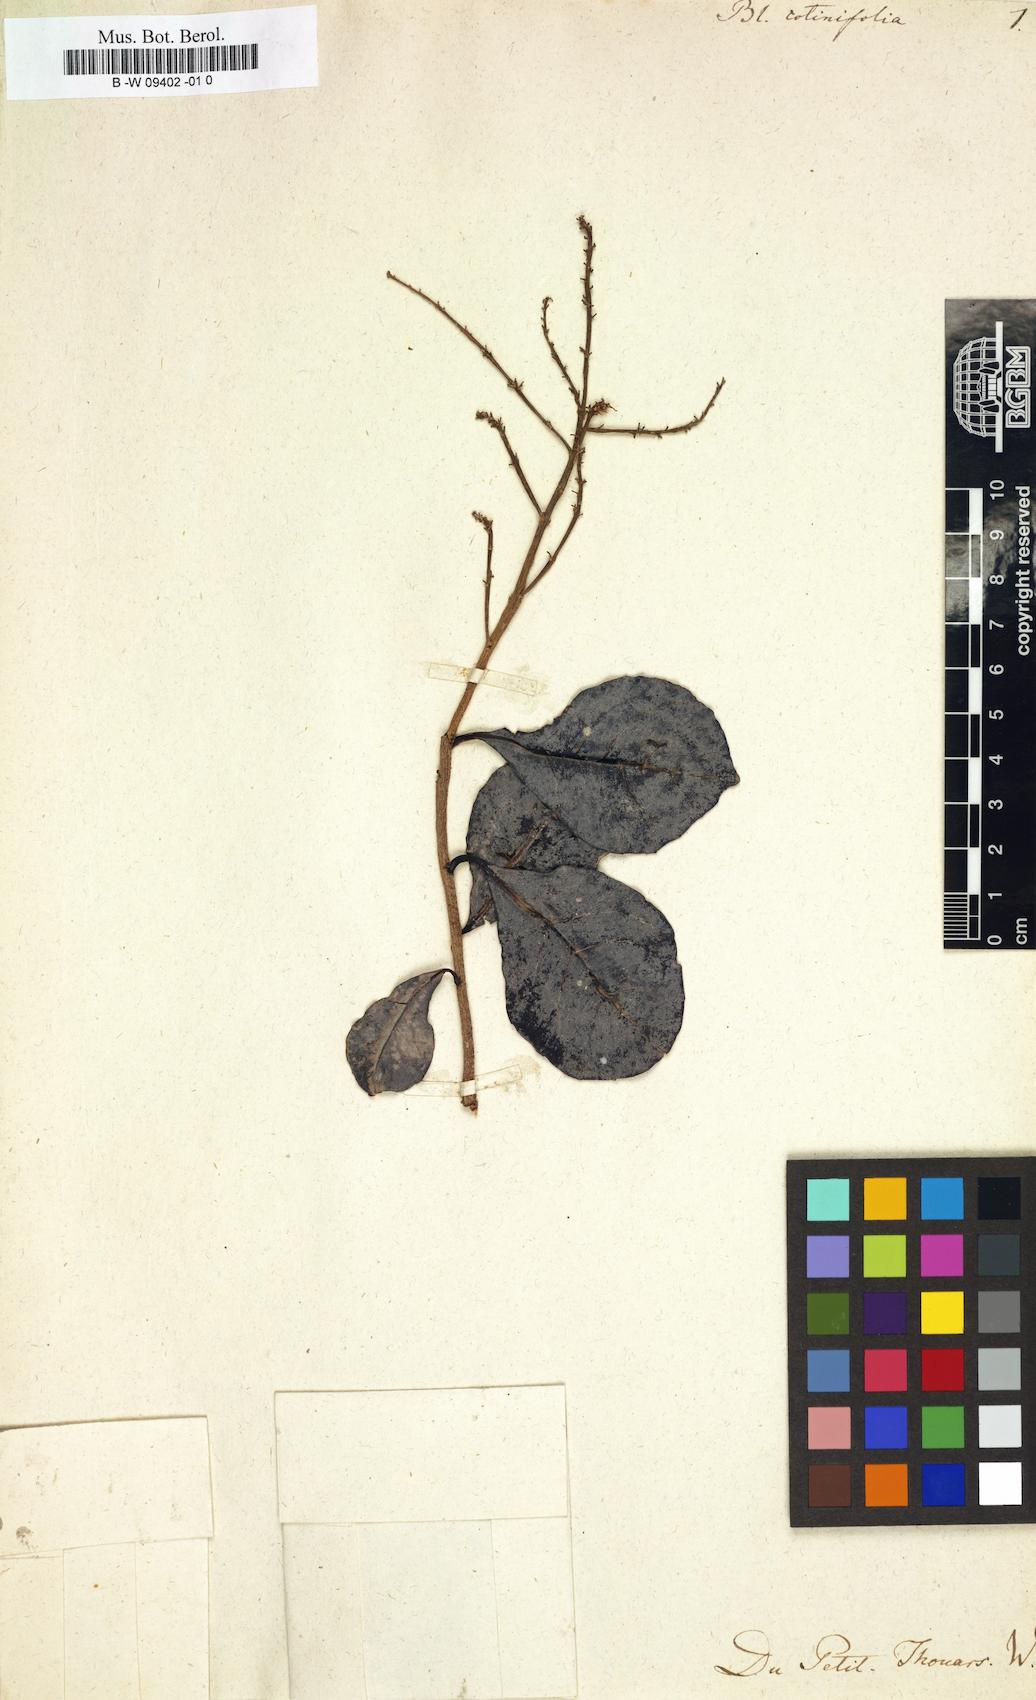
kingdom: Plantae
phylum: Tracheophyta
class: Magnoliopsida
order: Malpighiales
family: Flacourtiaceae
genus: Blackwellia
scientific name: Blackwellia
